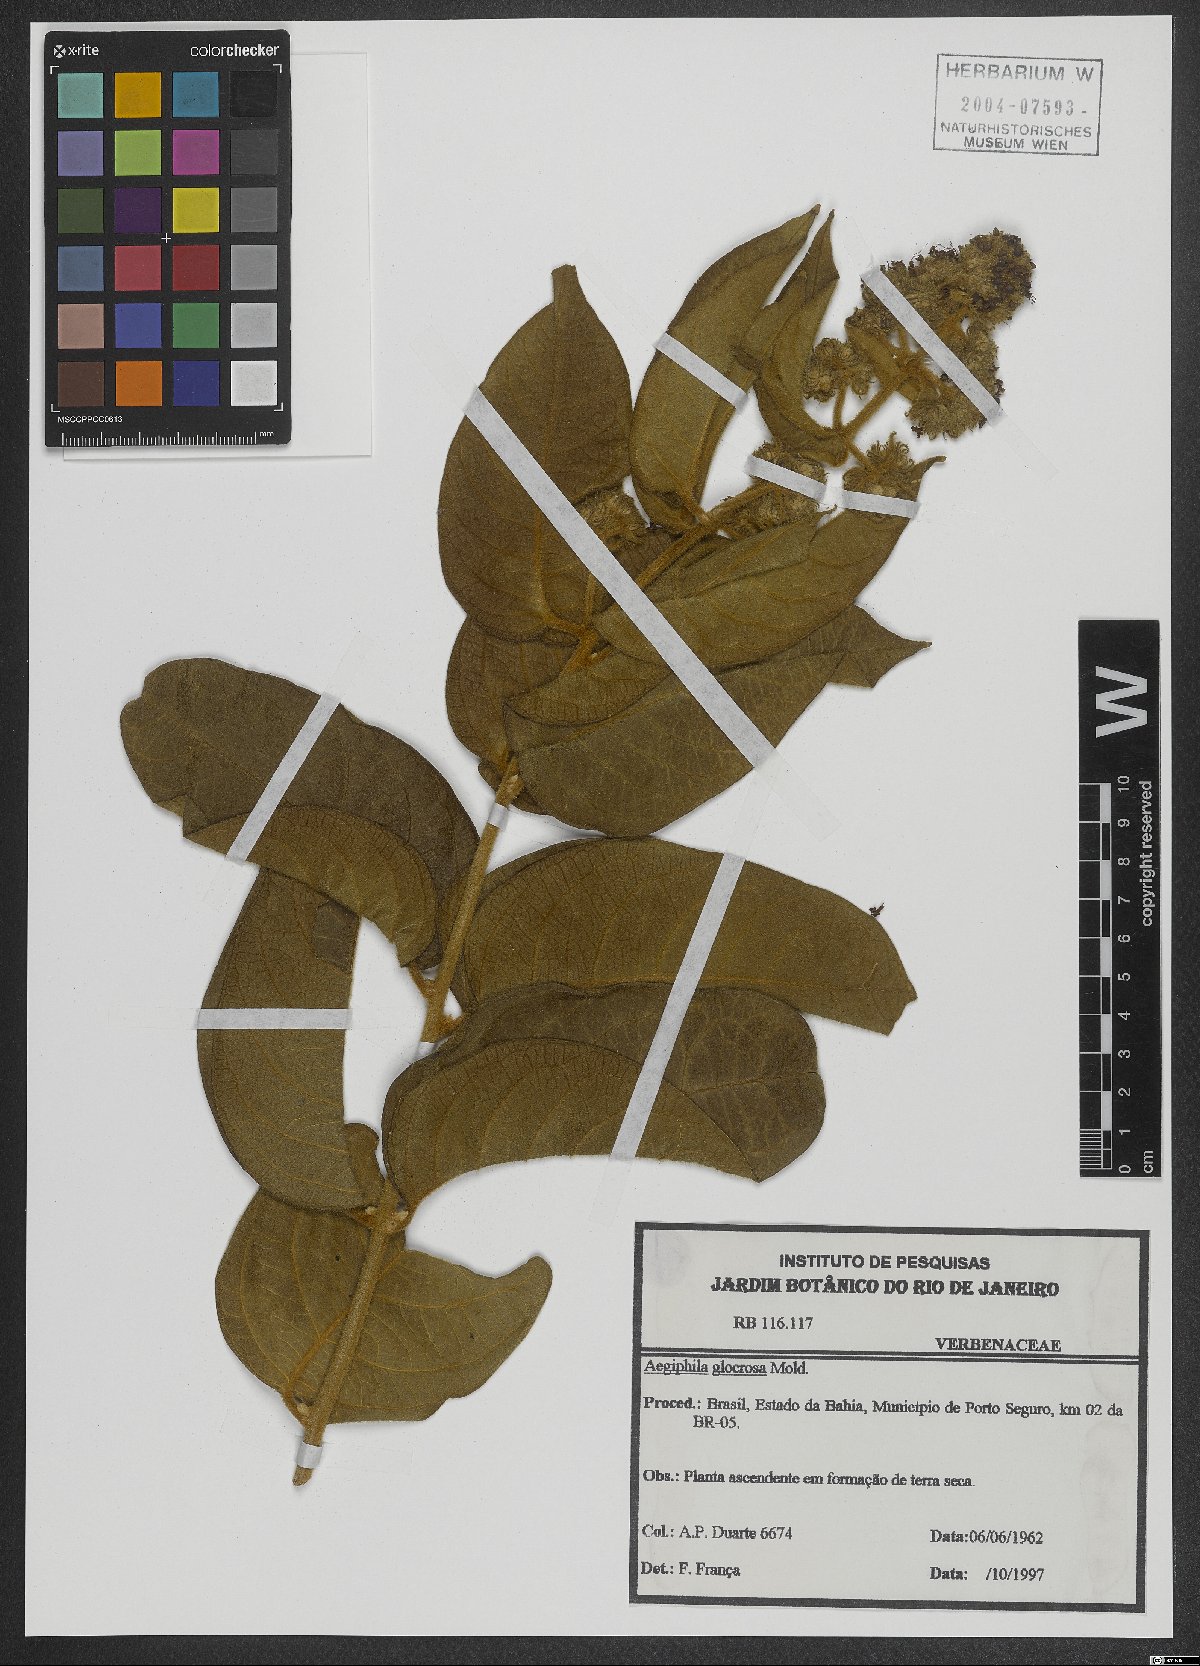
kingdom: Plantae
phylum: Tracheophyta
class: Magnoliopsida
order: Lamiales
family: Lamiaceae
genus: Aegiphila
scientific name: Aegiphila gloriosa
